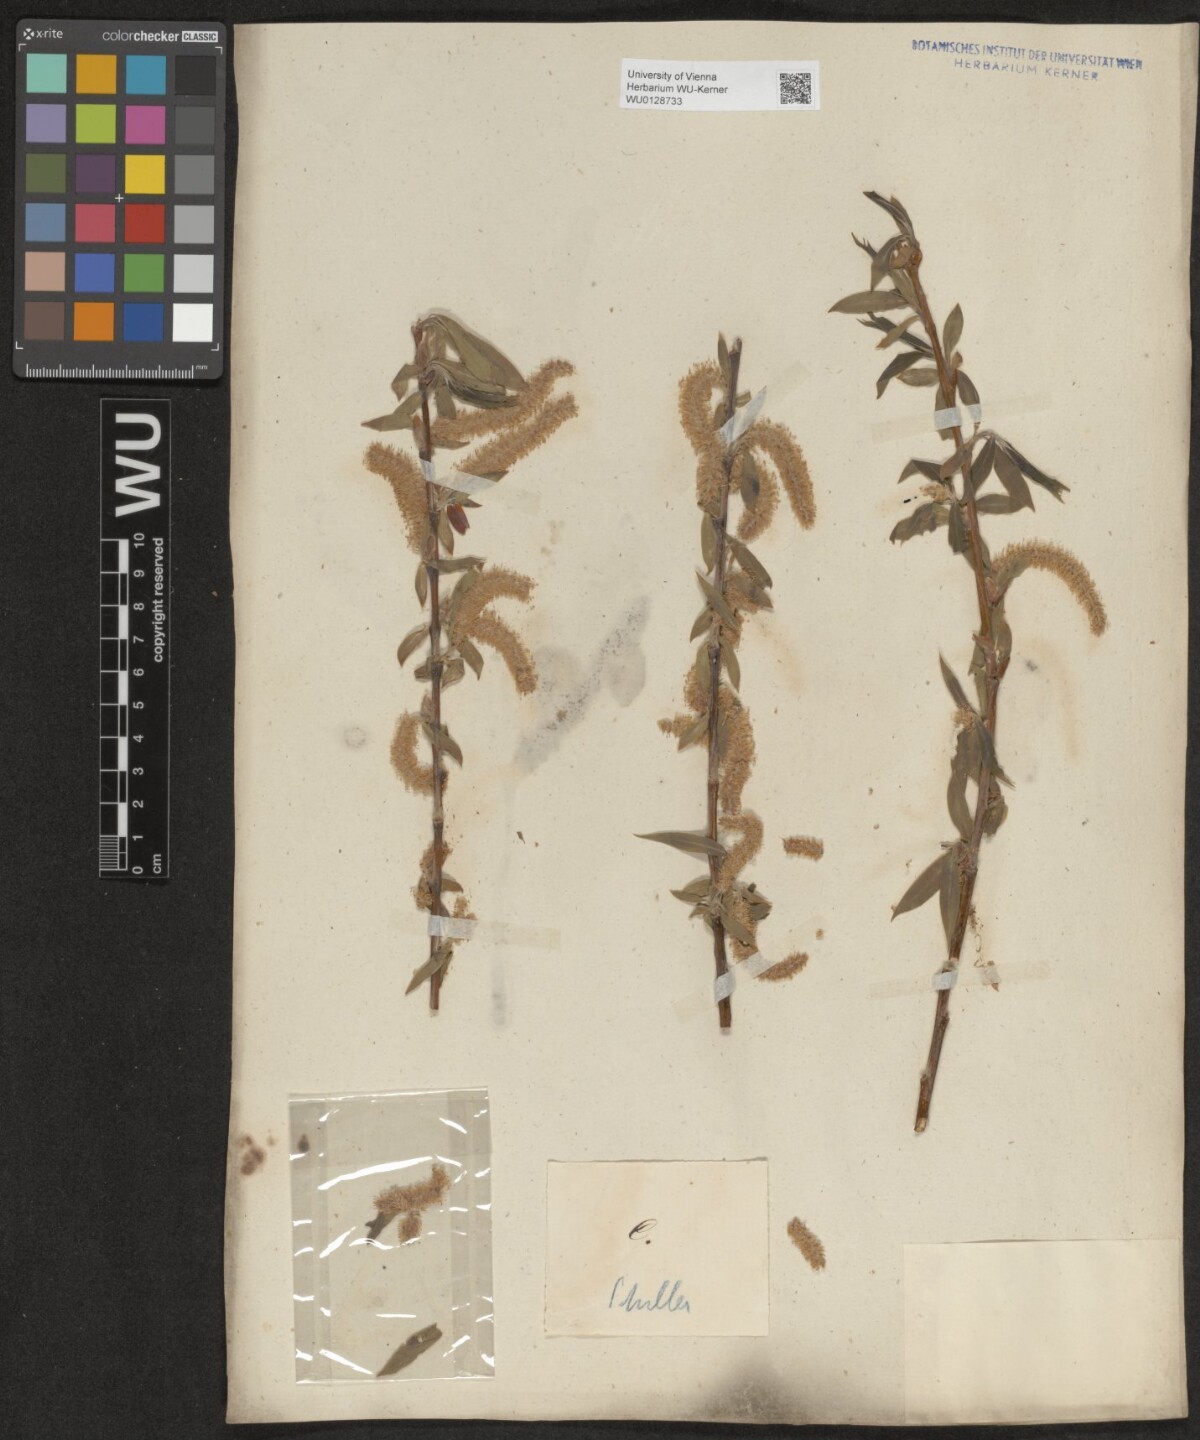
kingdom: Plantae
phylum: Tracheophyta
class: Magnoliopsida
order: Malpighiales
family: Salicaceae
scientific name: Salicaceae
